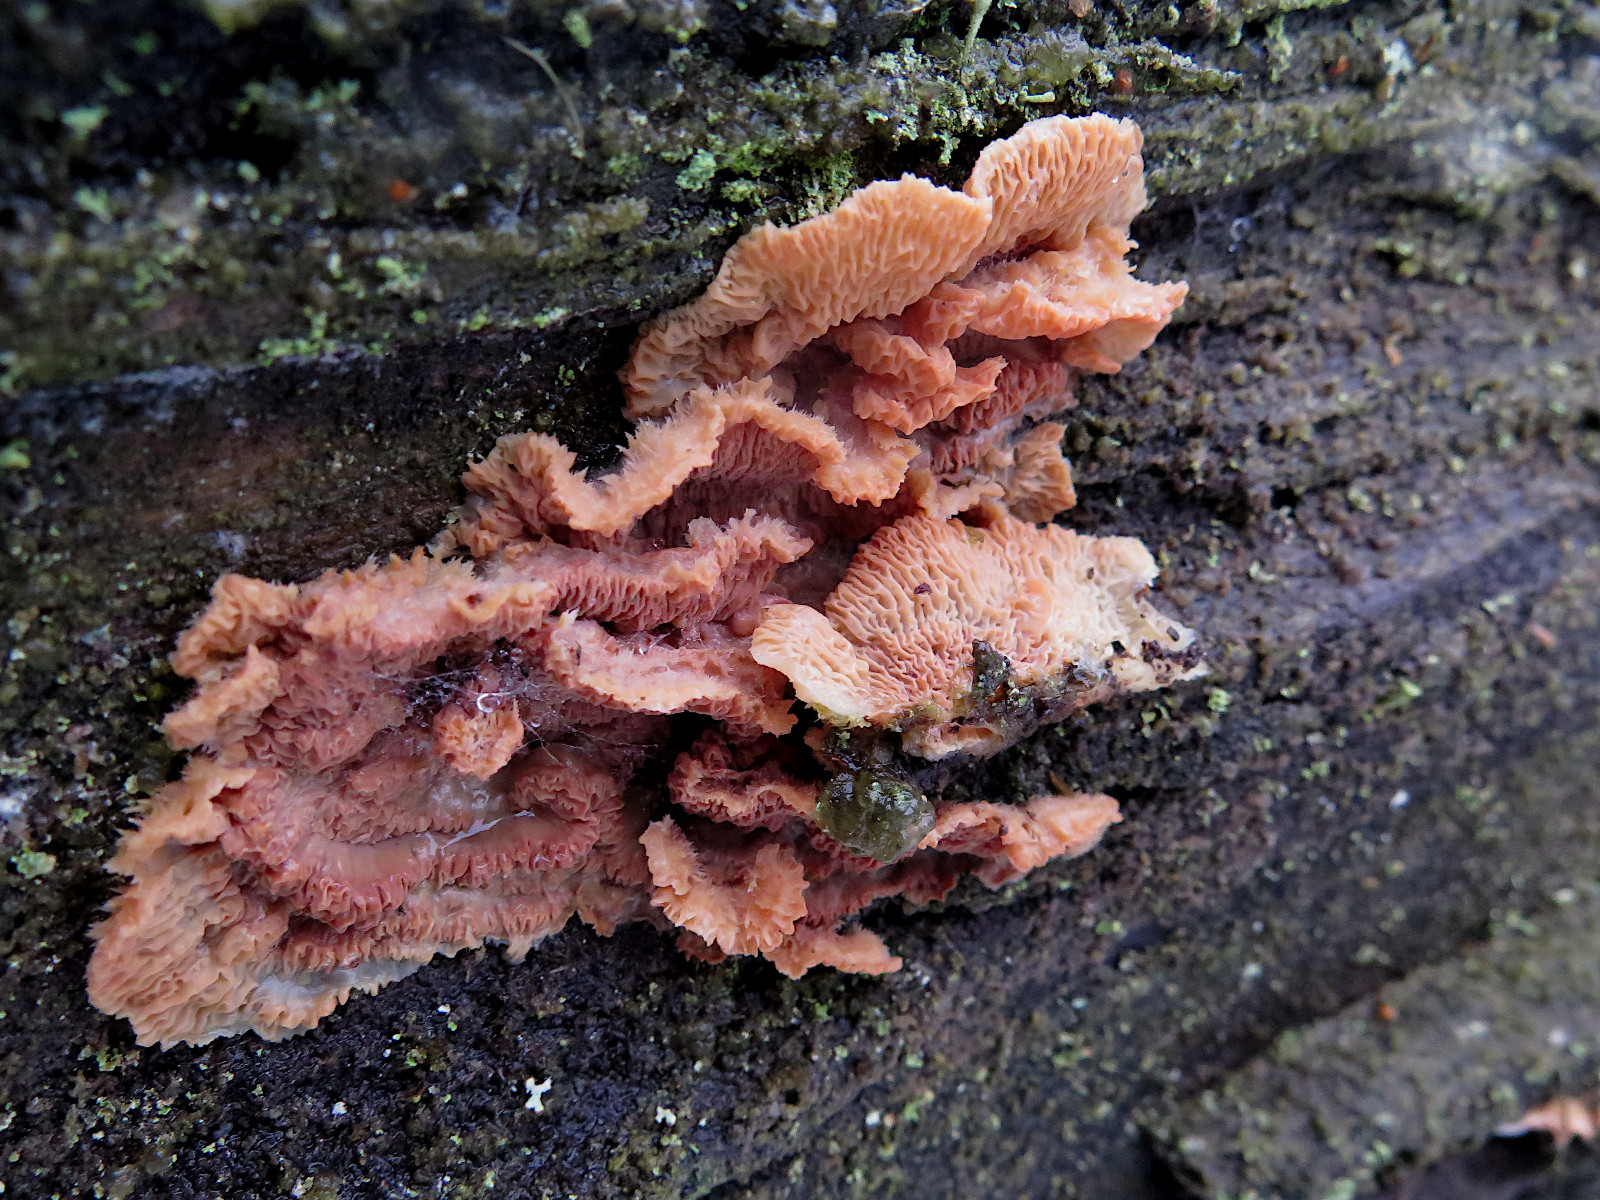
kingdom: Fungi
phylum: Basidiomycota
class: Agaricomycetes
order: Polyporales
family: Meruliaceae
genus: Phlebia
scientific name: Phlebia tremellosa
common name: bævrende åresvamp
